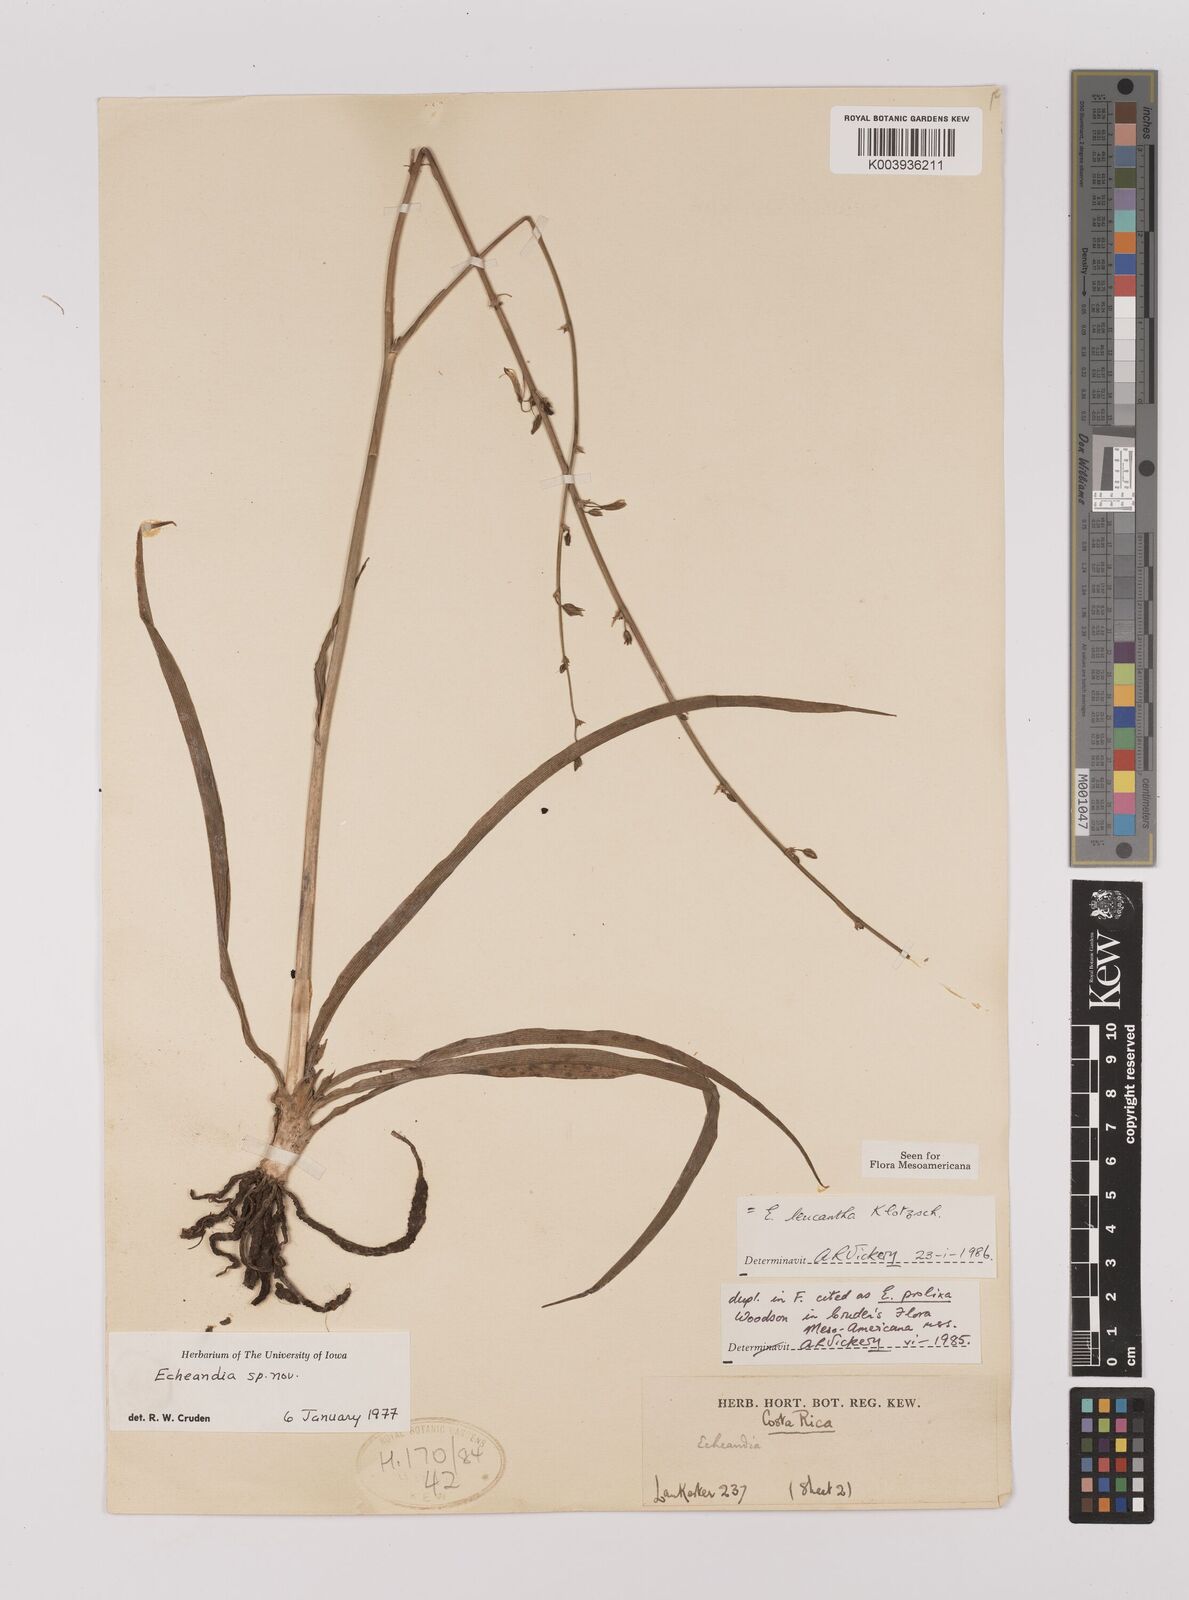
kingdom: Plantae
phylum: Tracheophyta
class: Liliopsida
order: Asparagales
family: Asparagaceae
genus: Echeandia
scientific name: Echeandia leucantha
